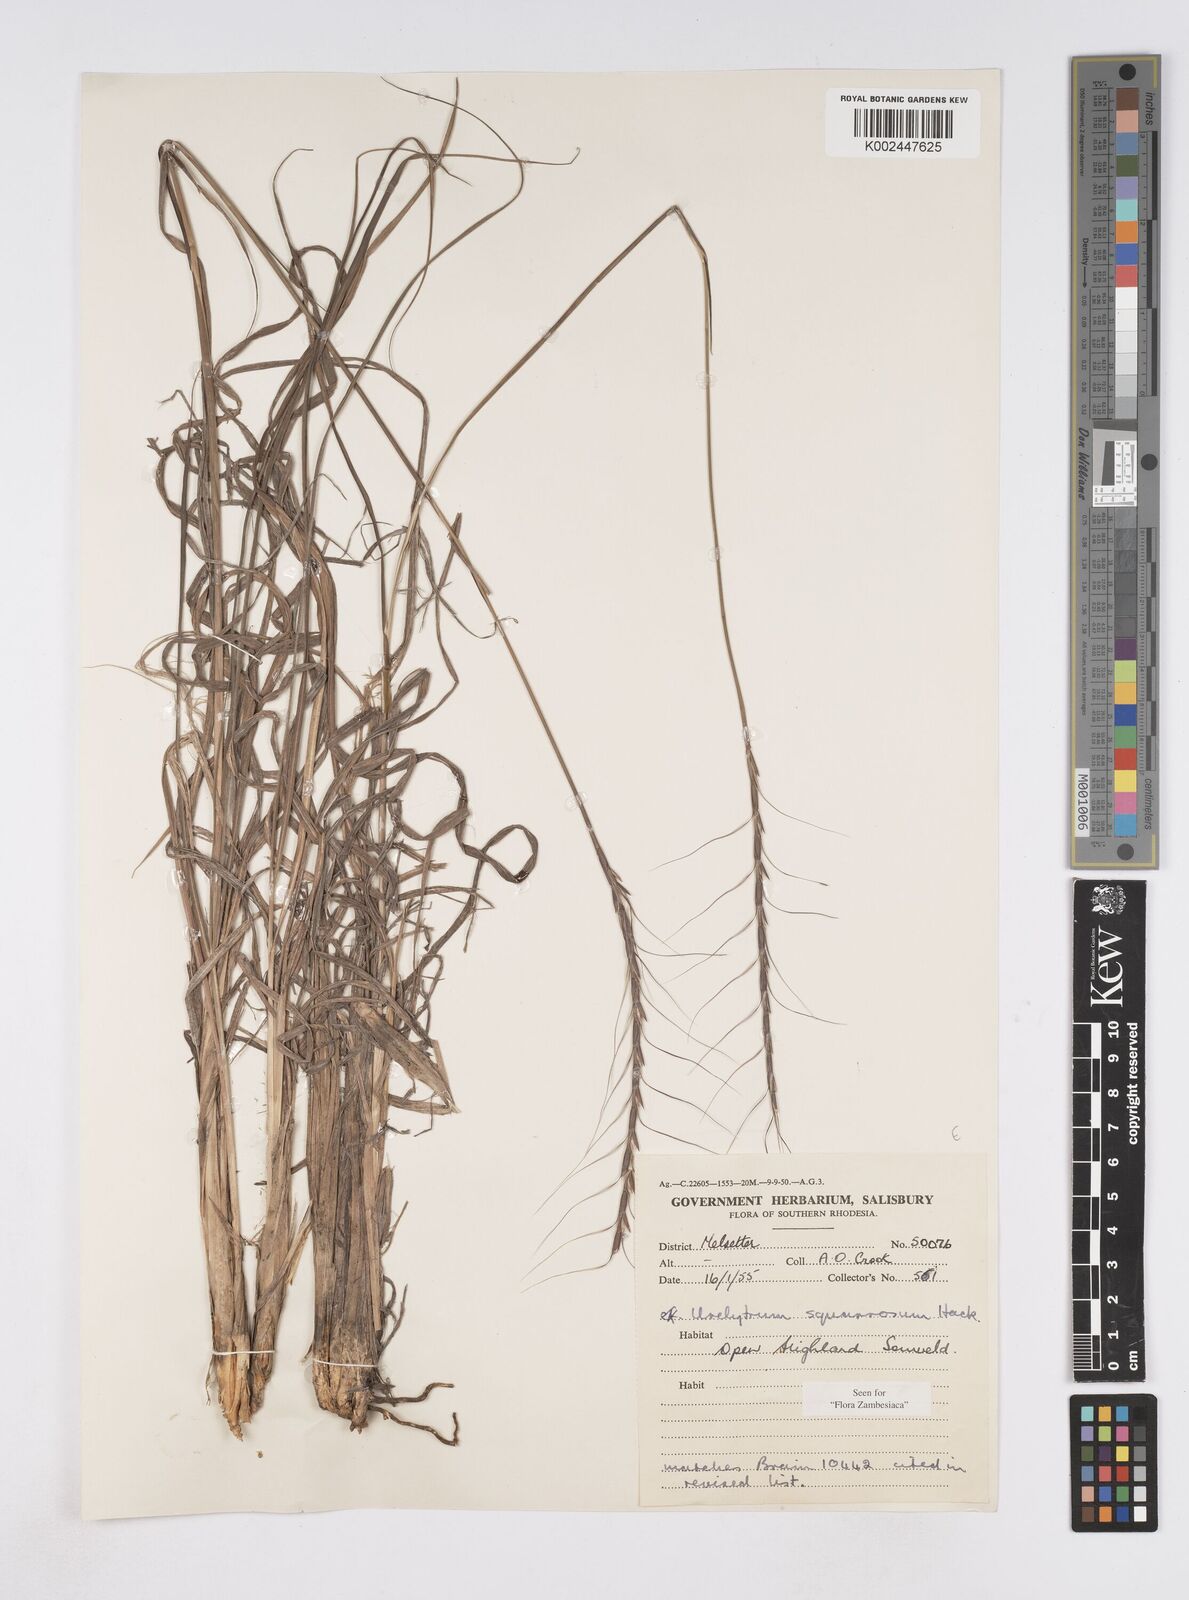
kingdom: Plantae
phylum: Tracheophyta
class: Liliopsida
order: Poales
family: Poaceae
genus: Urelytrum
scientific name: Urelytrum agropyroides
